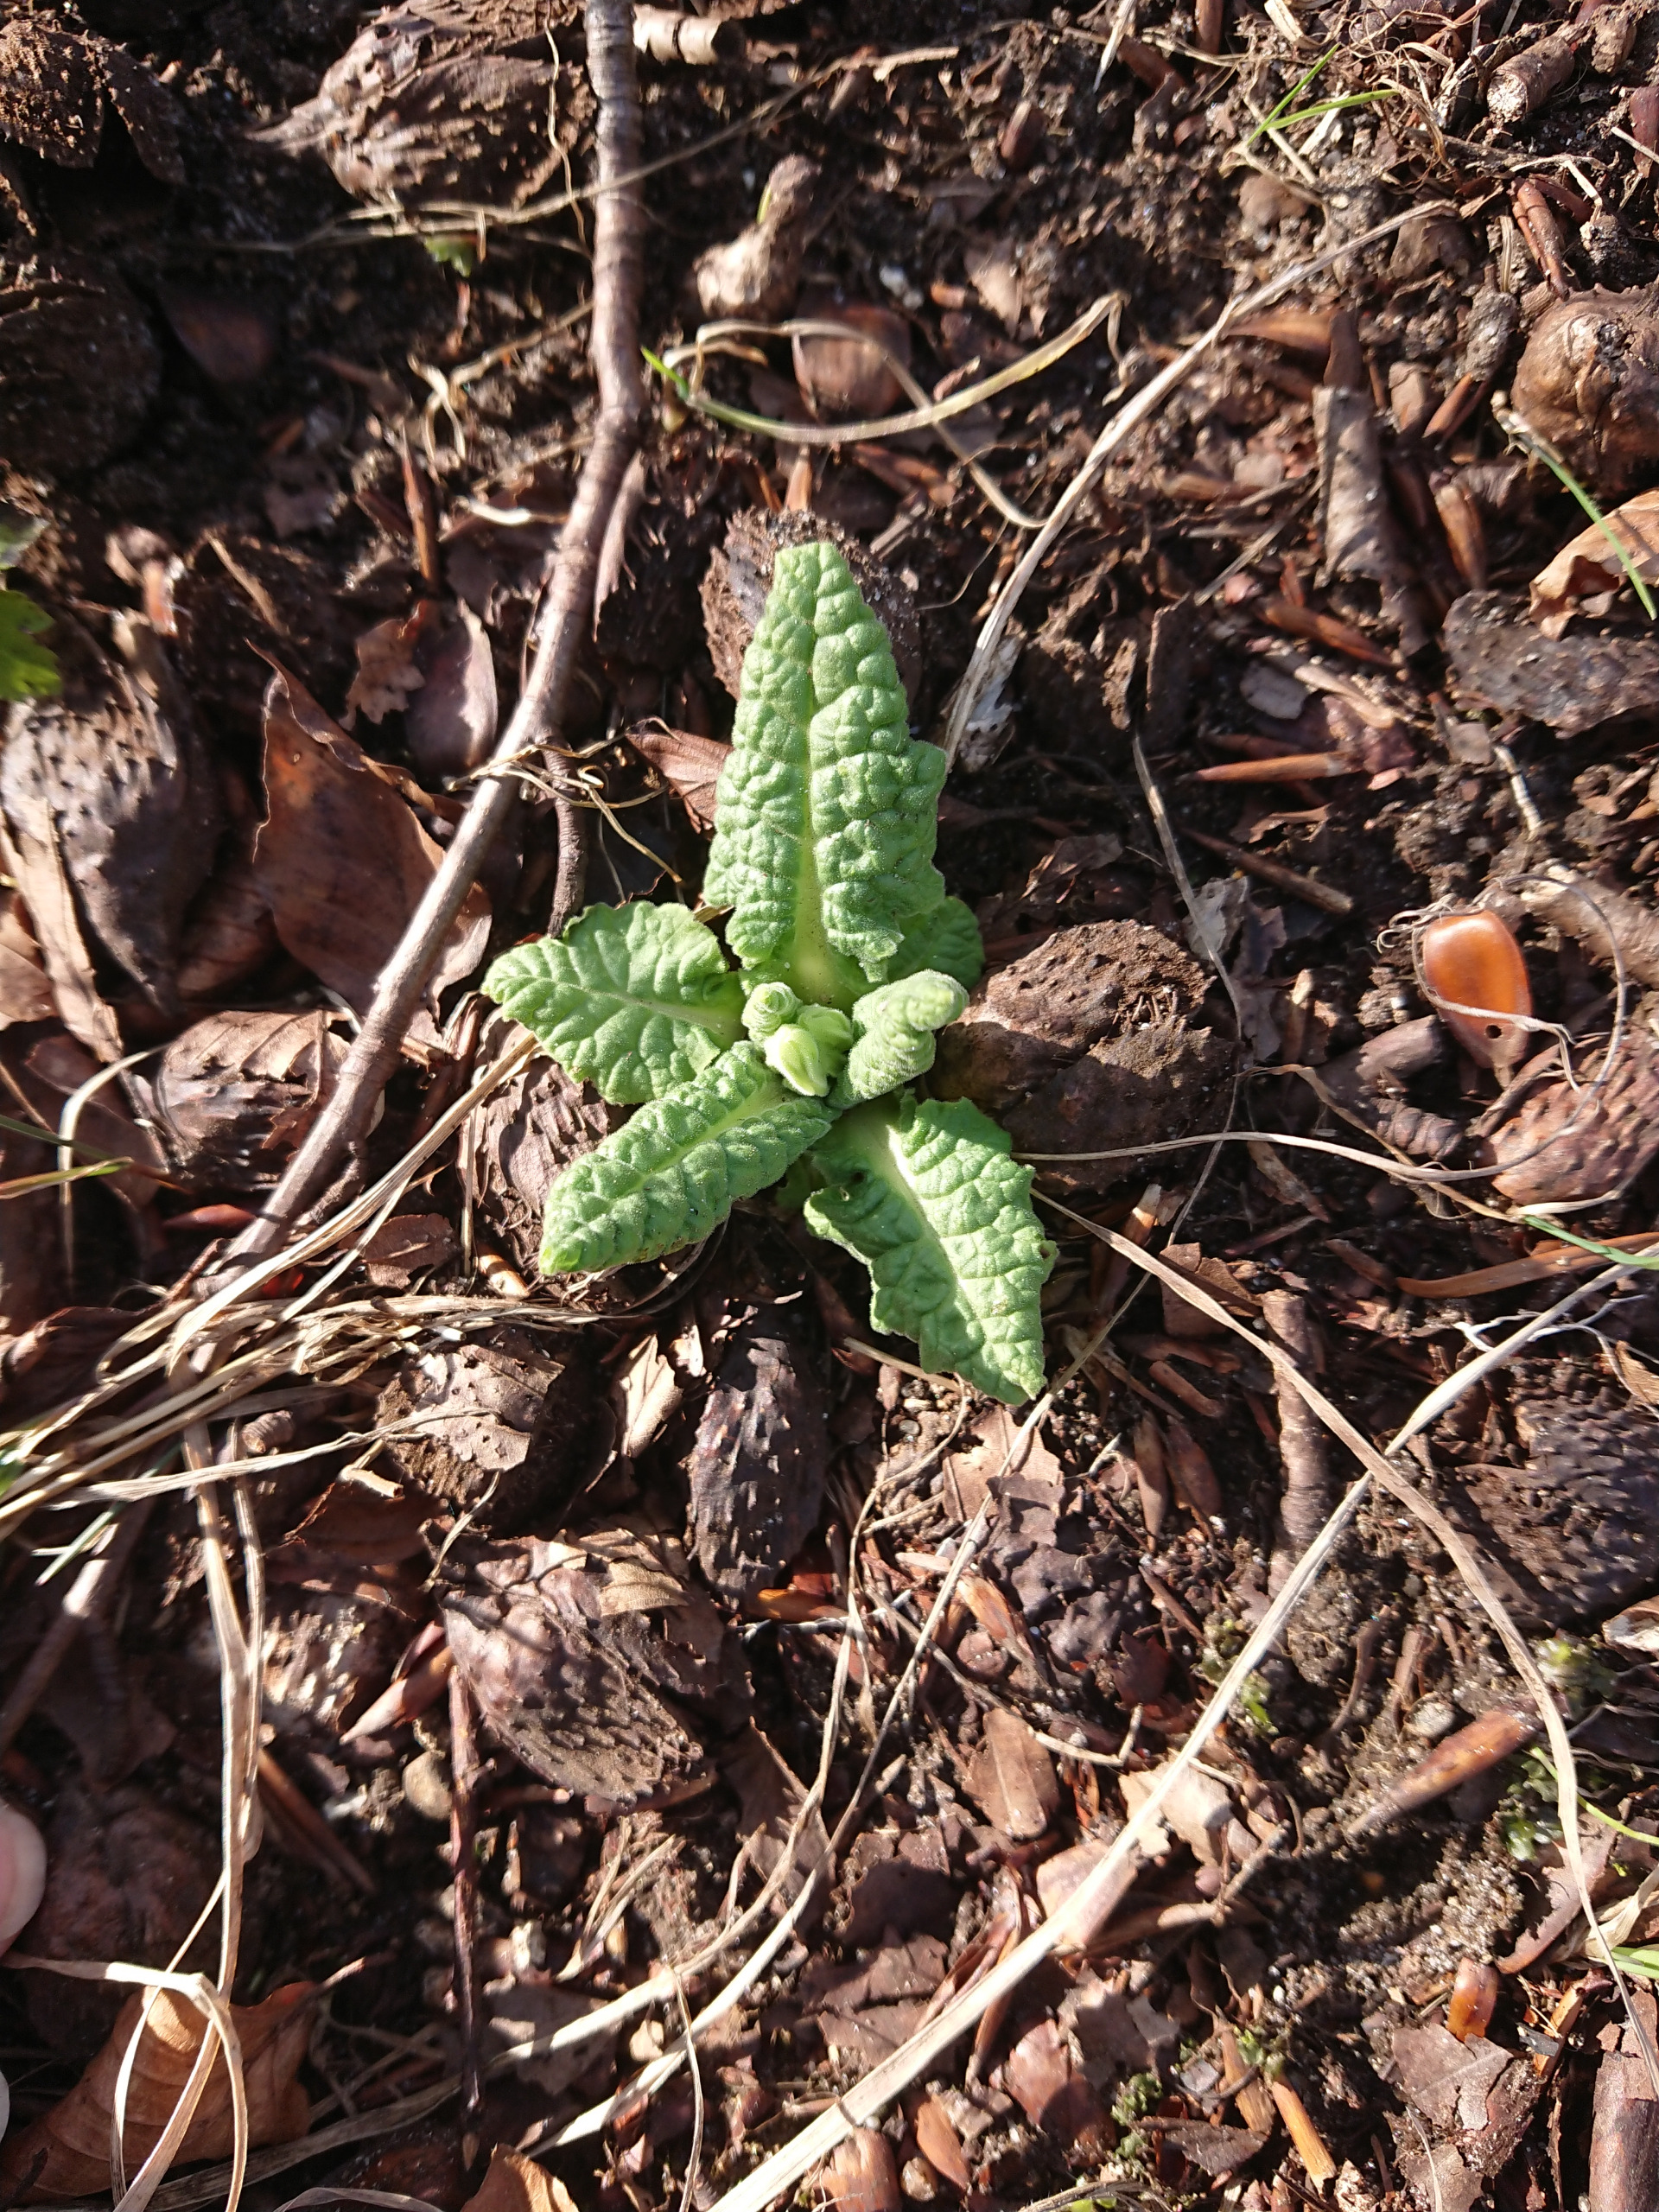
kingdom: Plantae
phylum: Tracheophyta
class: Magnoliopsida
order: Ericales
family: Primulaceae
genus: Primula
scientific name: Primula veris
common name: Hulkravet kodriver
